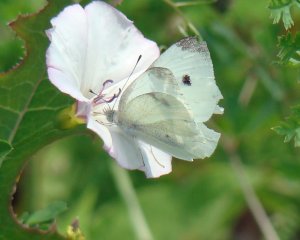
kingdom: Animalia
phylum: Arthropoda
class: Insecta
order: Lepidoptera
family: Pieridae
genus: Pieris
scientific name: Pieris rapae
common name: Cabbage White
